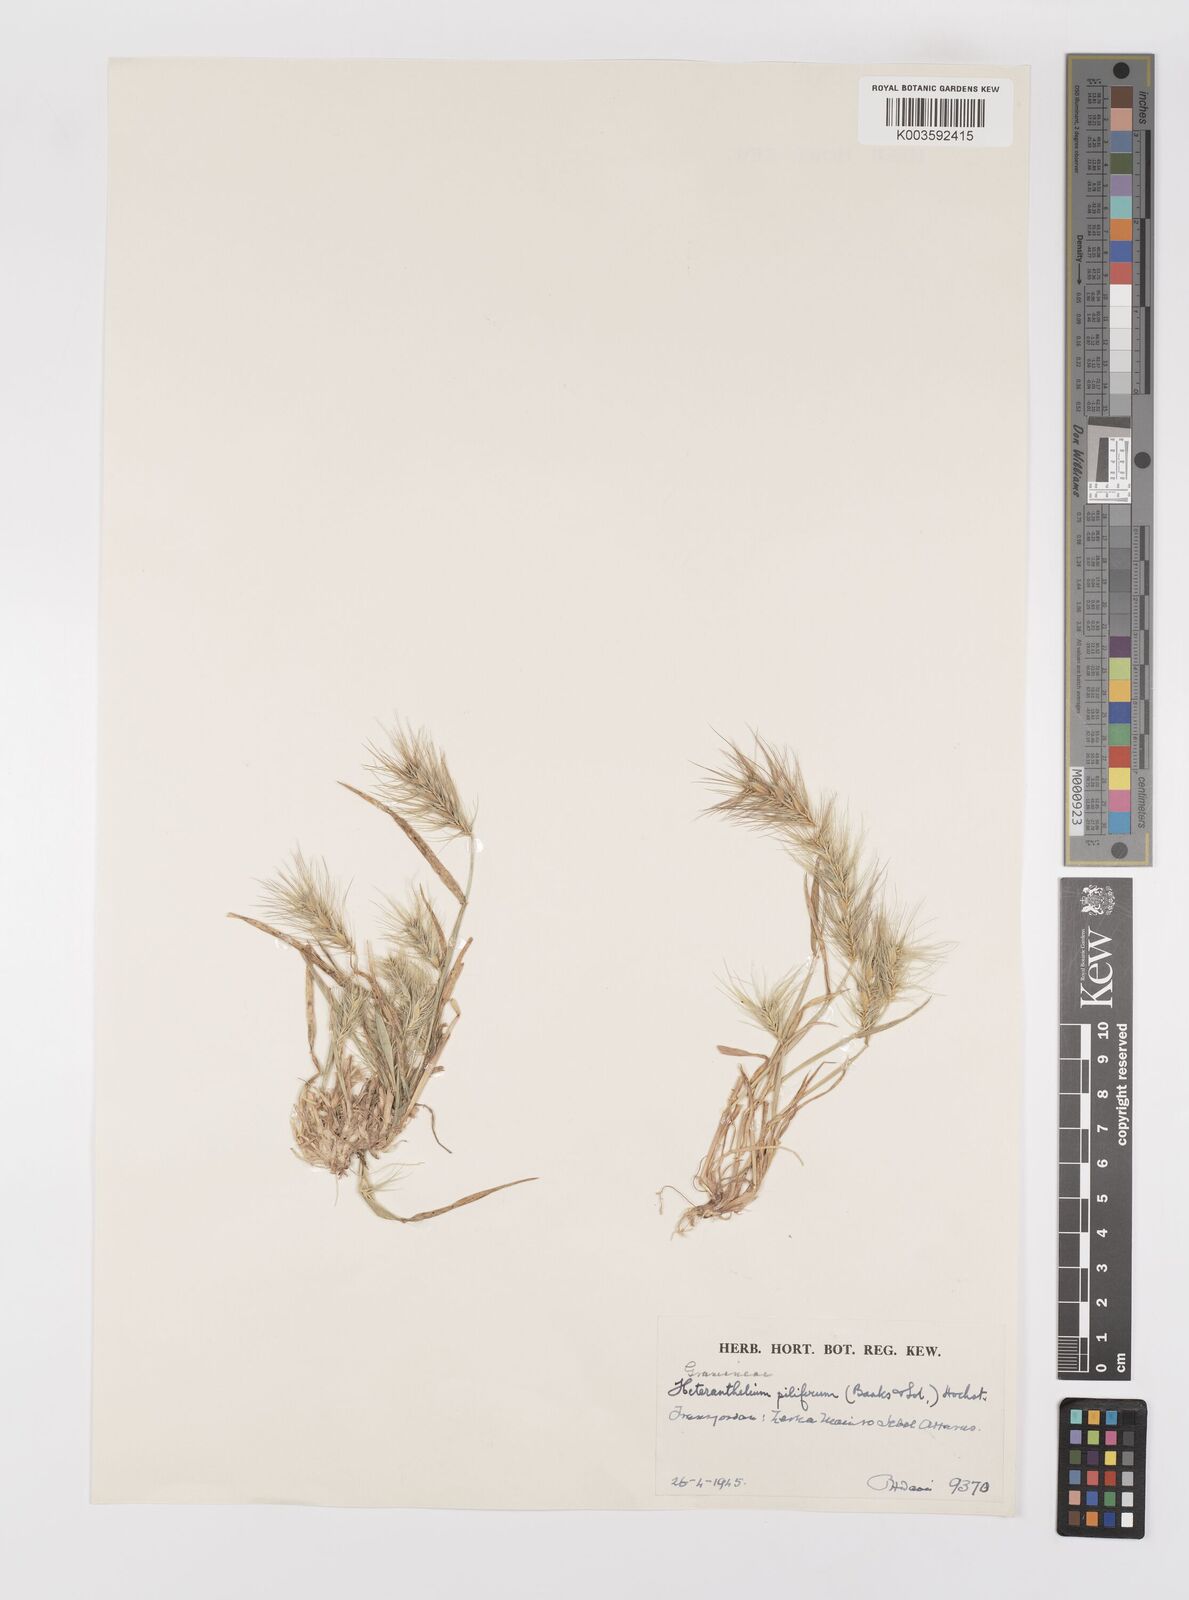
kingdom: Plantae
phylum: Tracheophyta
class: Liliopsida
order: Poales
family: Poaceae
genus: Heteranthelium
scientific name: Heteranthelium piliferum
